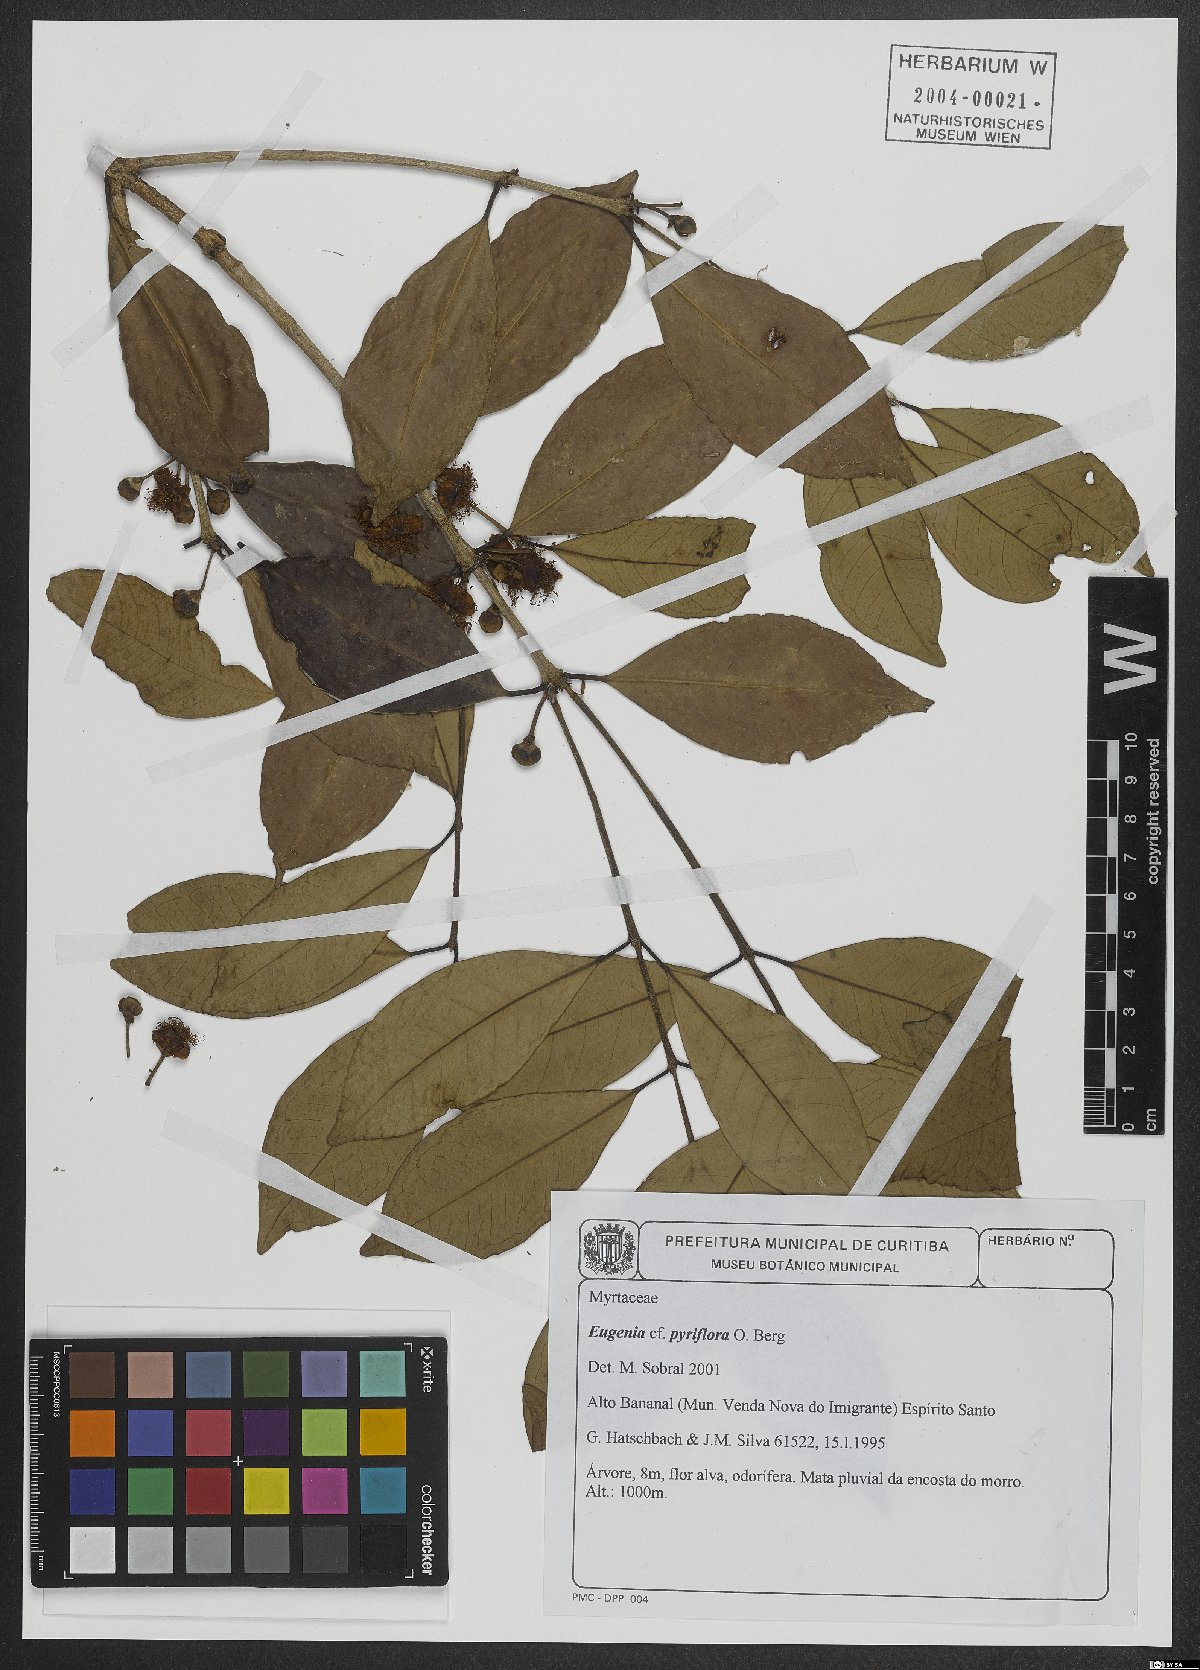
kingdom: Plantae
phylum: Tracheophyta
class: Magnoliopsida
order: Myrtales
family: Myrtaceae
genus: Eugenia
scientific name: Eugenia pyriflora
